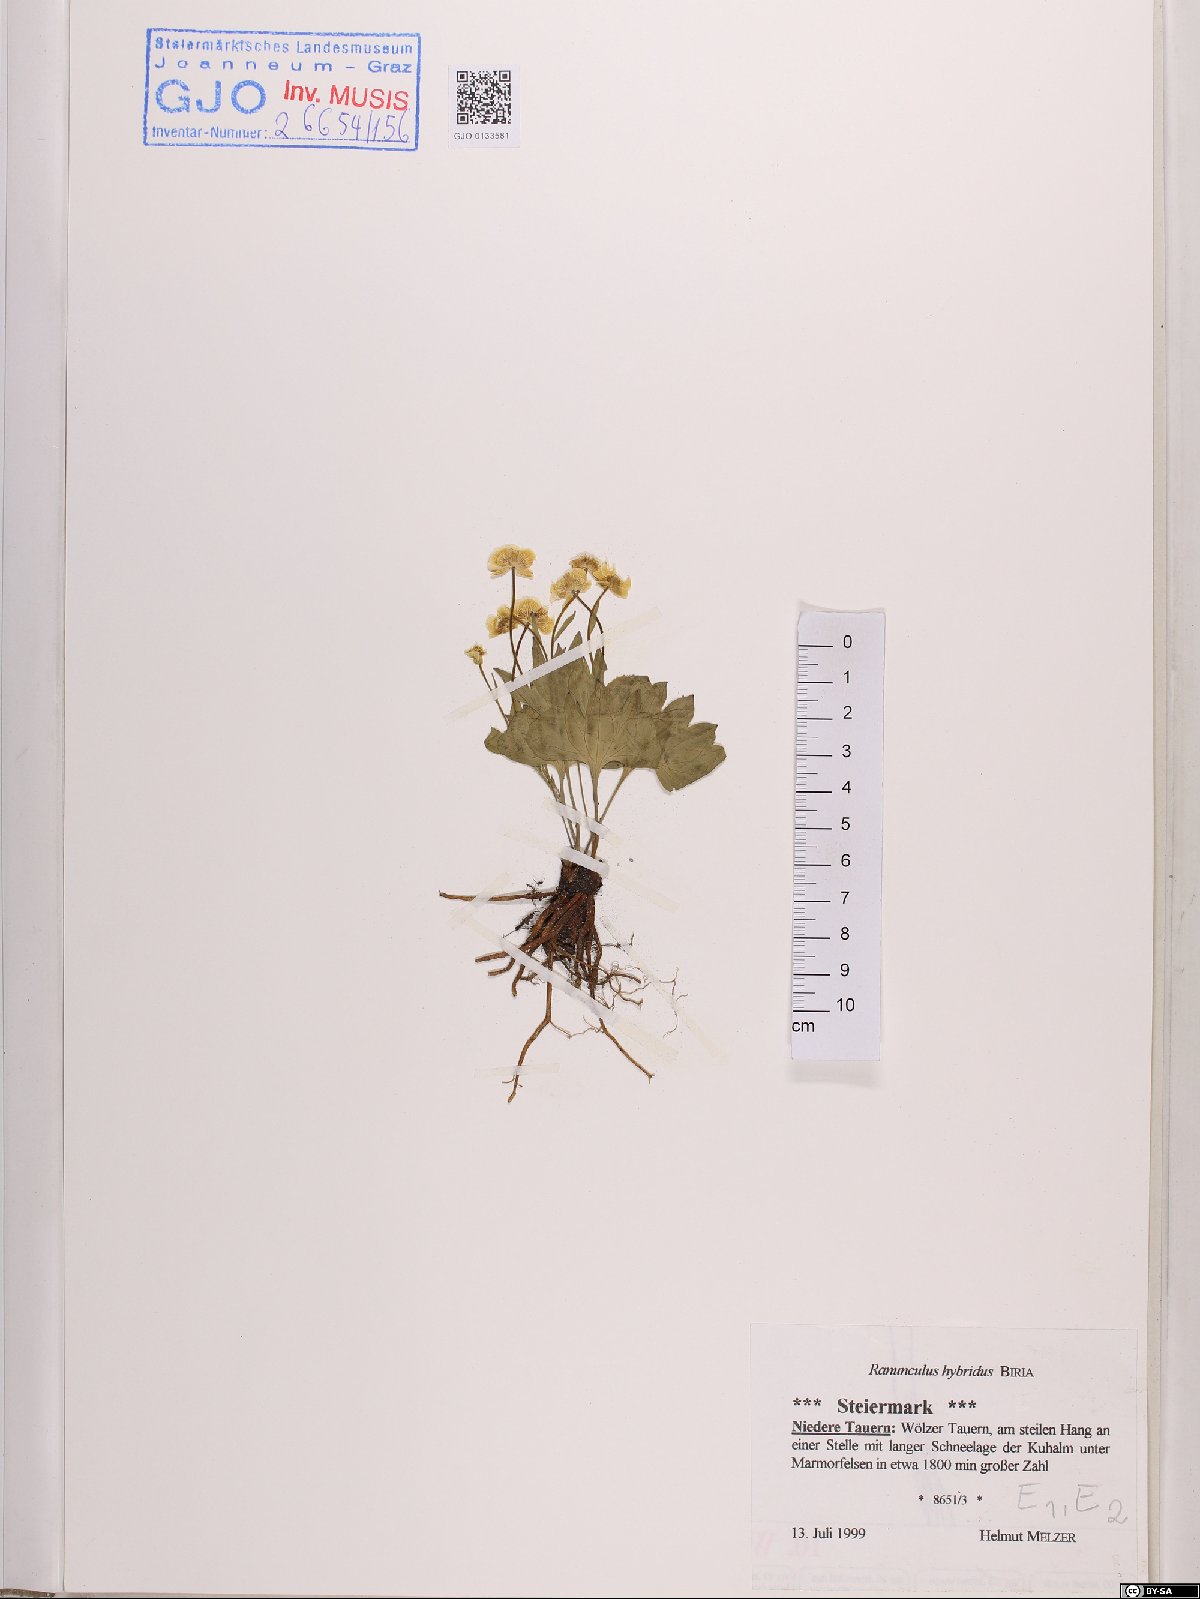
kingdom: Plantae
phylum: Tracheophyta
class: Magnoliopsida
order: Ranunculales
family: Ranunculaceae
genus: Ranunculus
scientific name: Ranunculus hybridus
